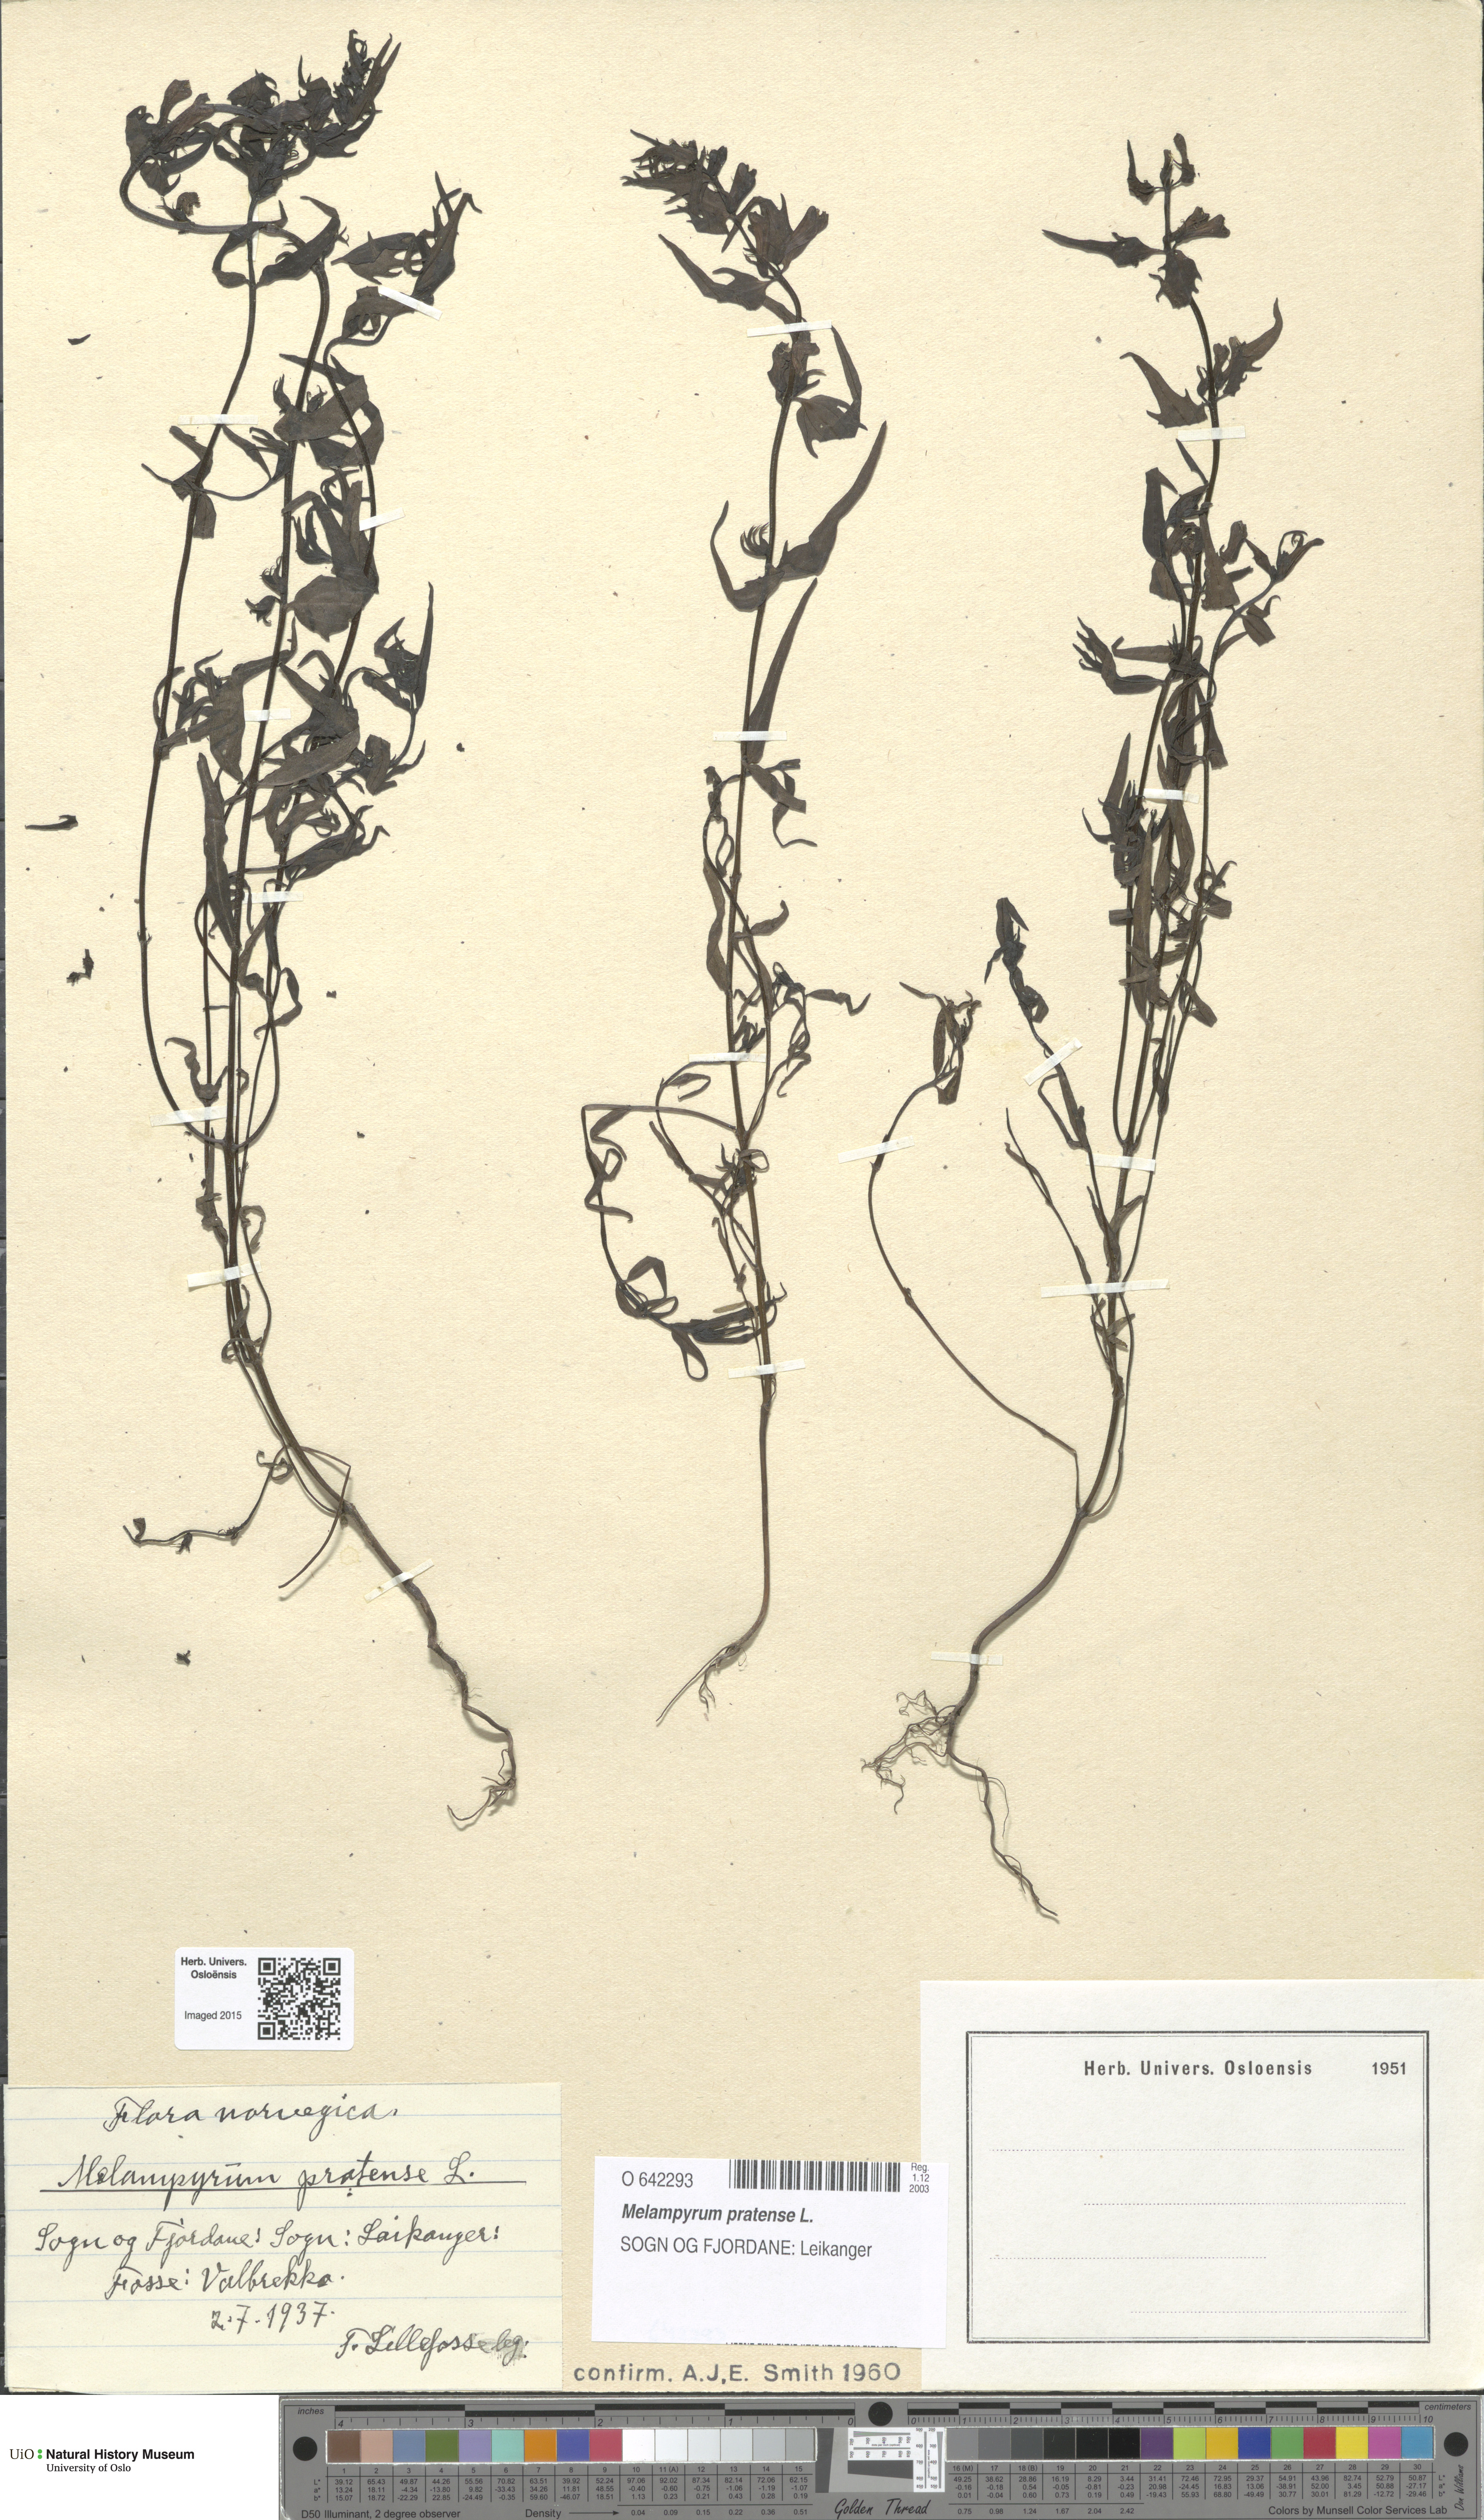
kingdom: Plantae
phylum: Tracheophyta
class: Magnoliopsida
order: Lamiales
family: Orobanchaceae
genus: Melampyrum
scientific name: Melampyrum pratense
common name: Common cow-wheat
